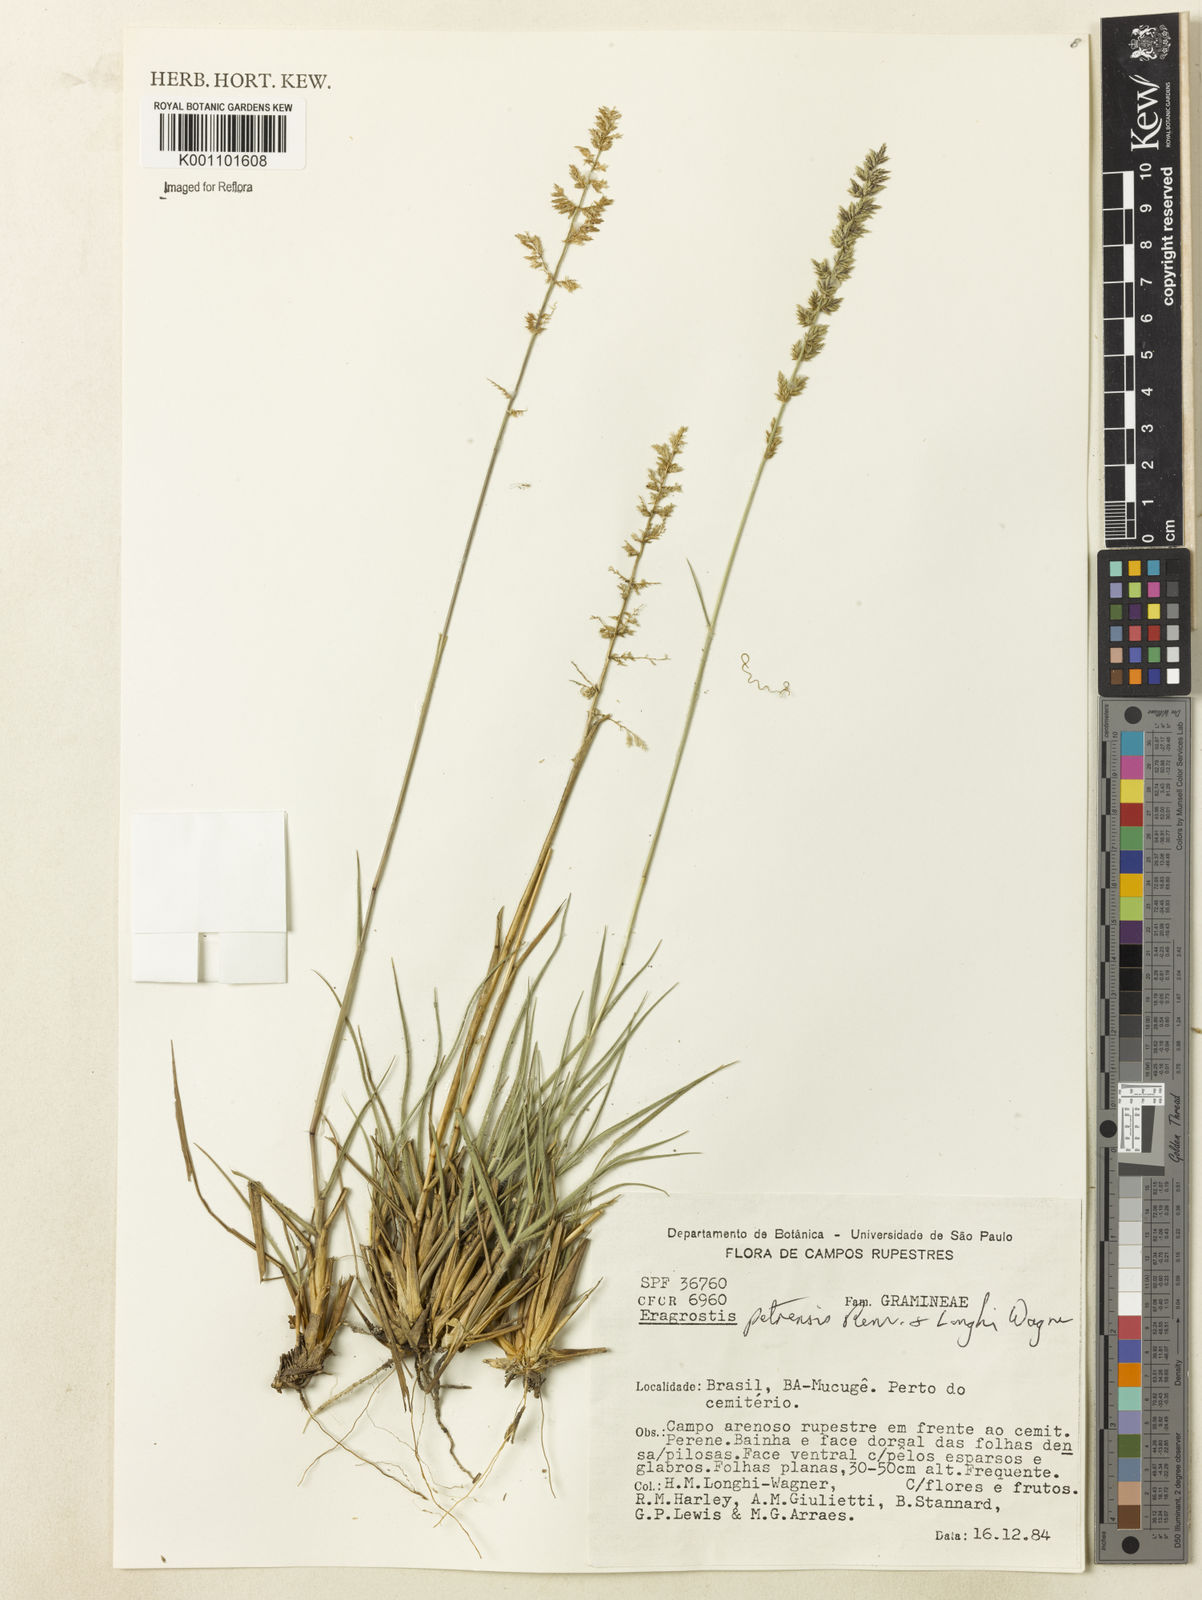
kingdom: Plantae
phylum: Tracheophyta
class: Liliopsida
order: Poales
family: Poaceae
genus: Eragrostis
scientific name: Eragrostis petrensis
